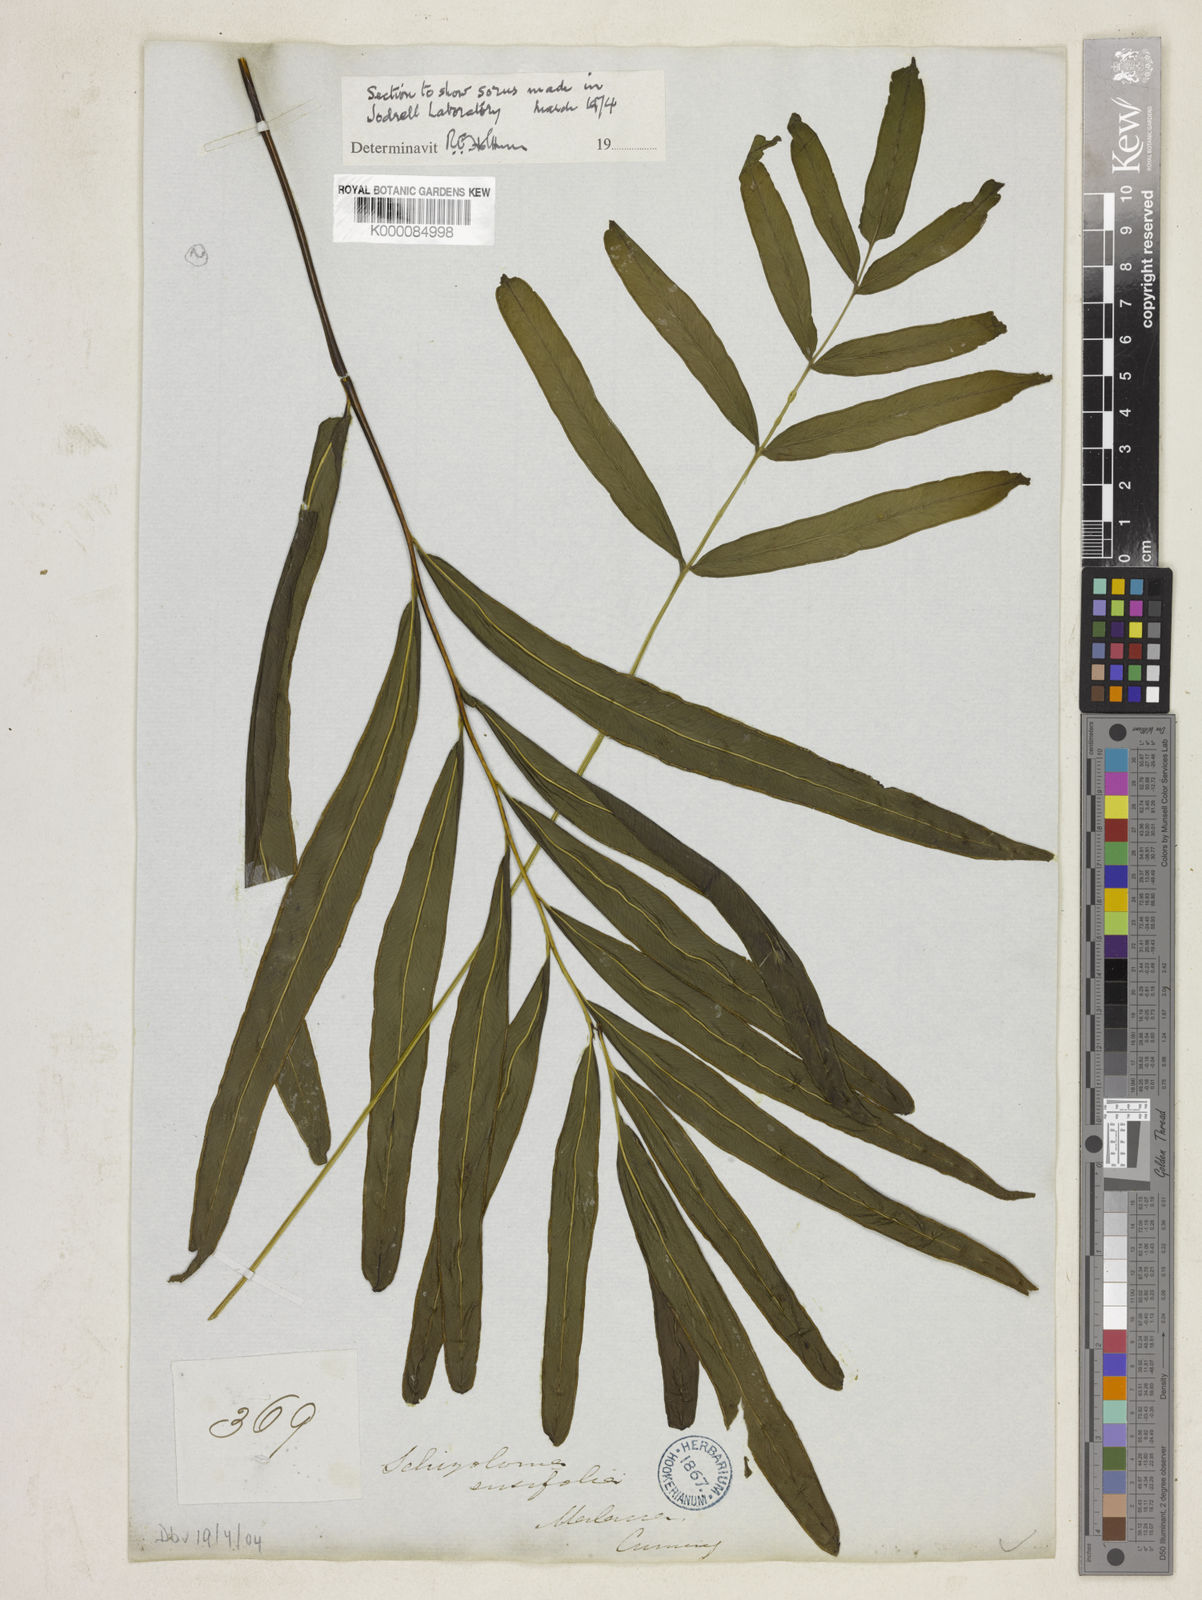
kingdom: Plantae
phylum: Tracheophyta
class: Polypodiopsida
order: Polypodiales
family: Lindsaeaceae
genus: Lindsaea
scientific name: Lindsaea ensifolia
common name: Graceful necklace fern
